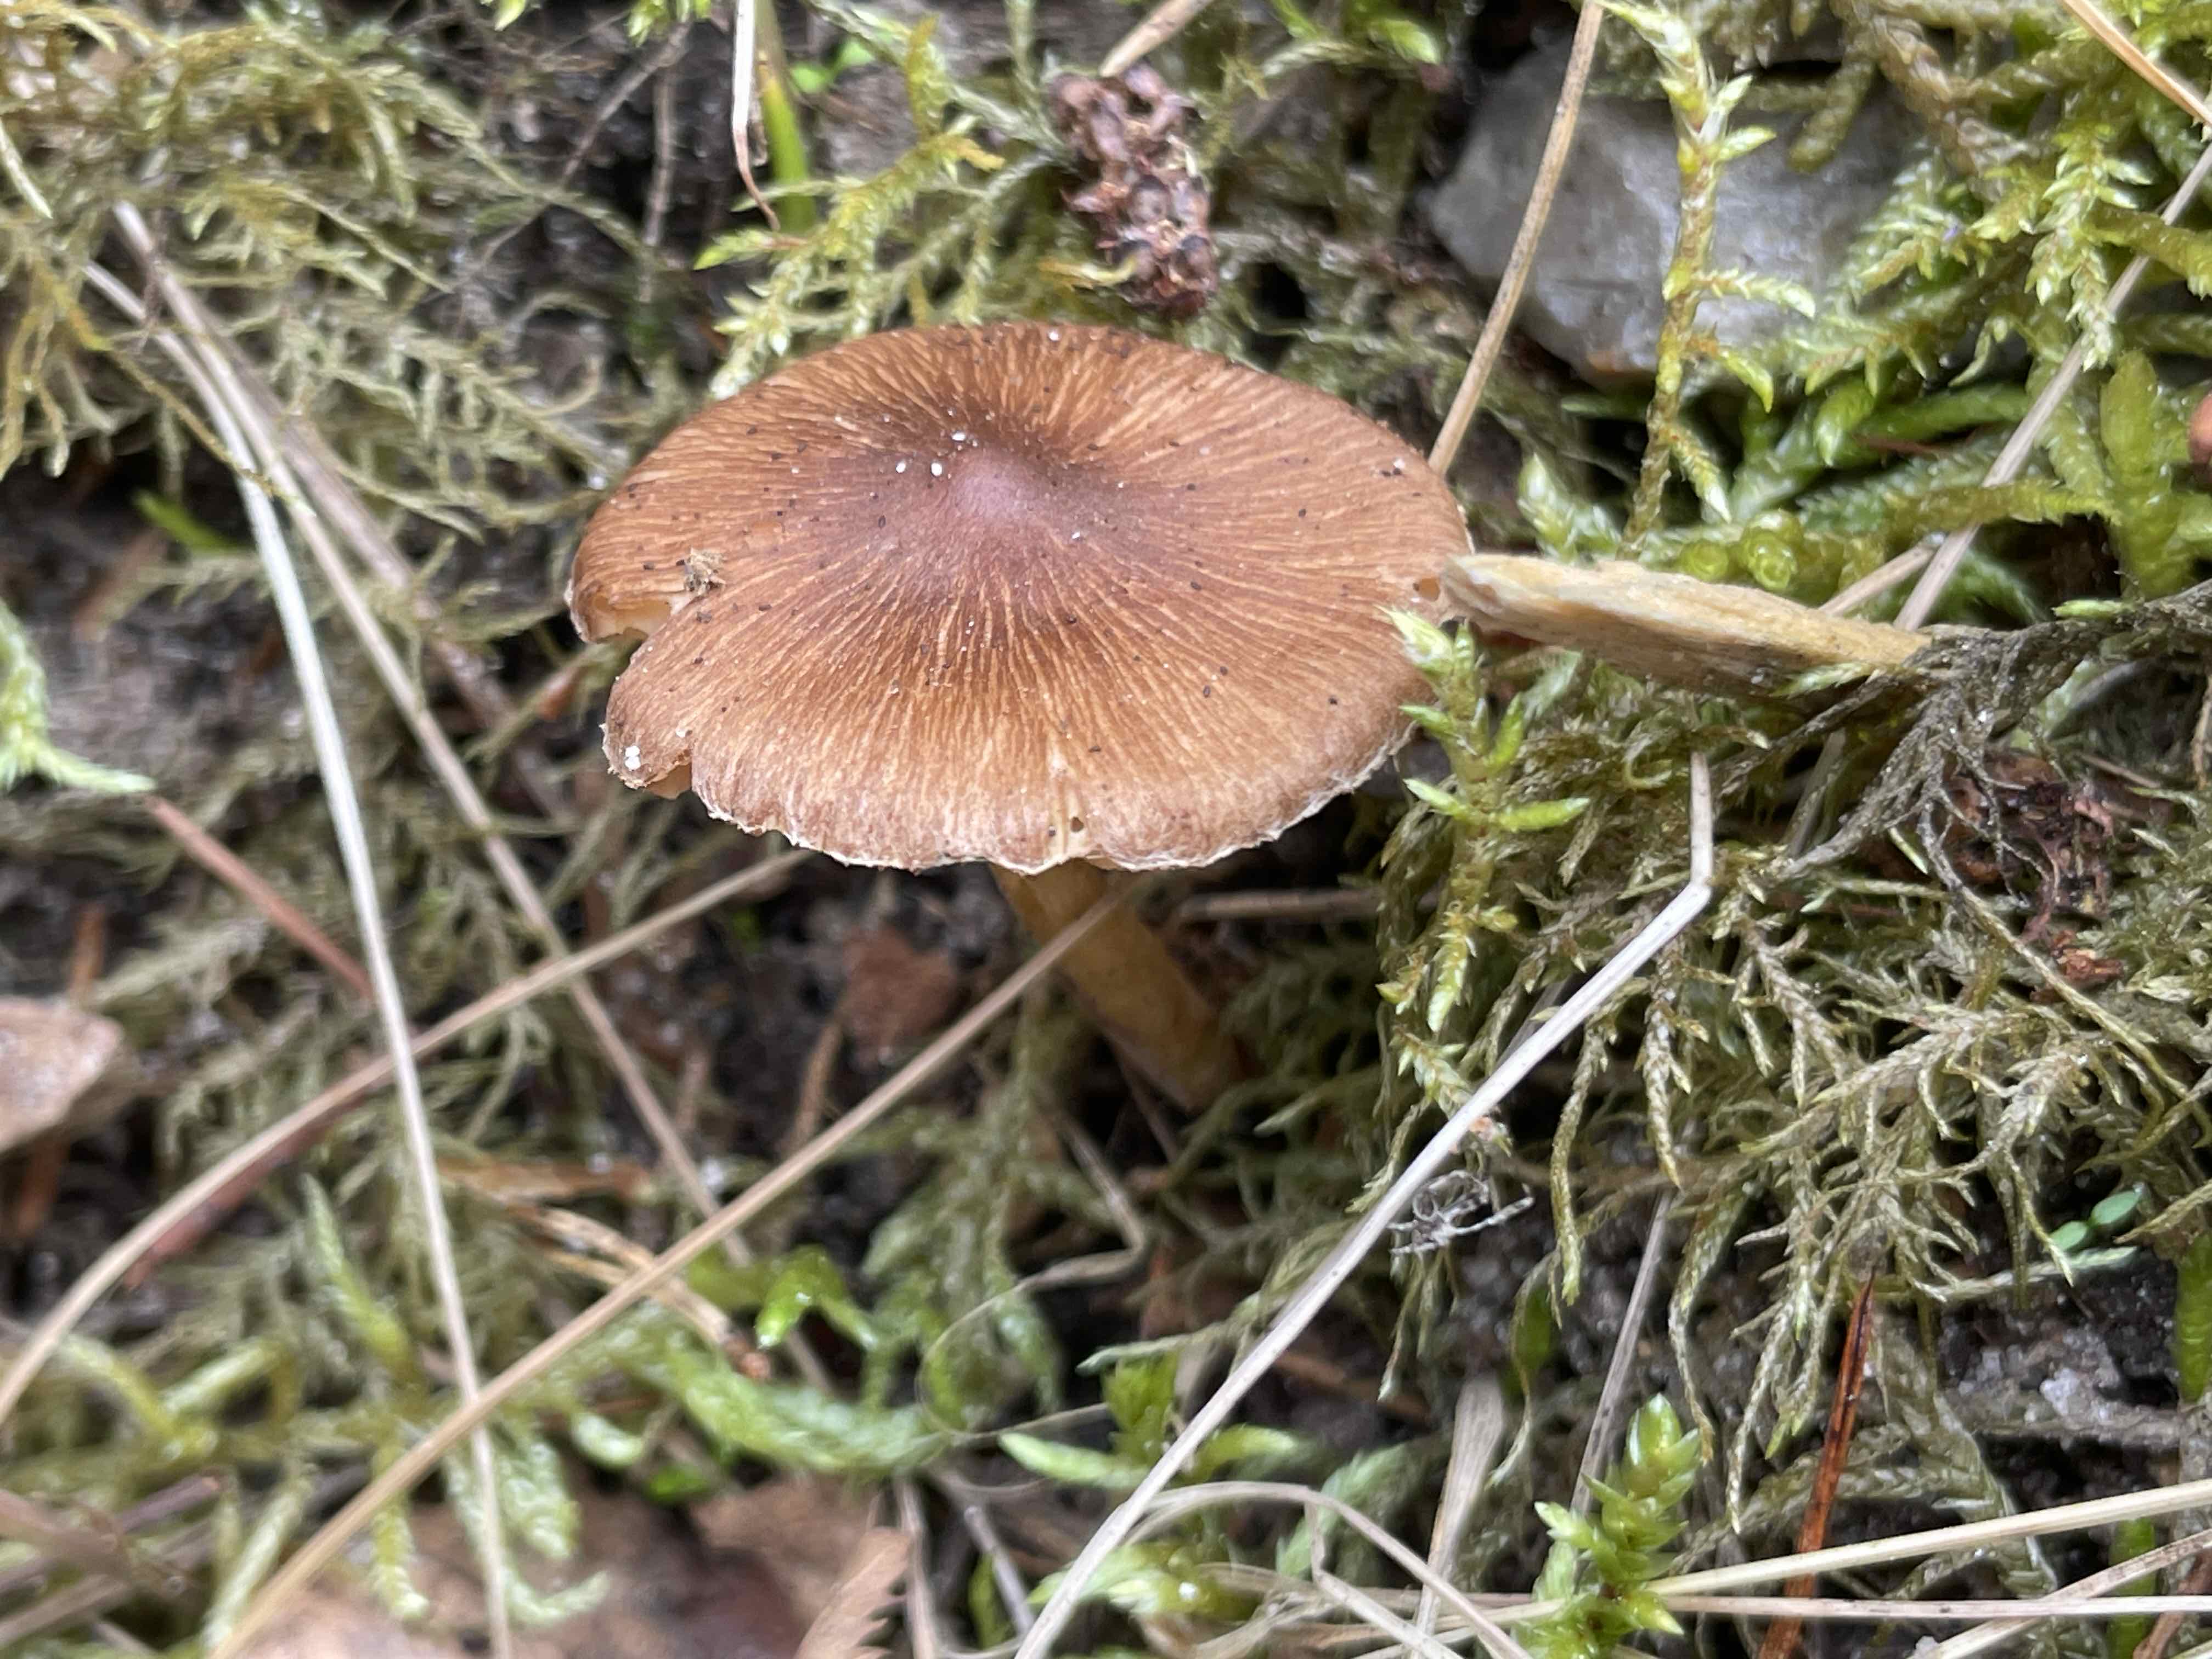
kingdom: Fungi
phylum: Basidiomycota
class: Agaricomycetes
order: Agaricales
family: Inocybaceae
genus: Inocybe
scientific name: Inocybe
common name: trævlhat
